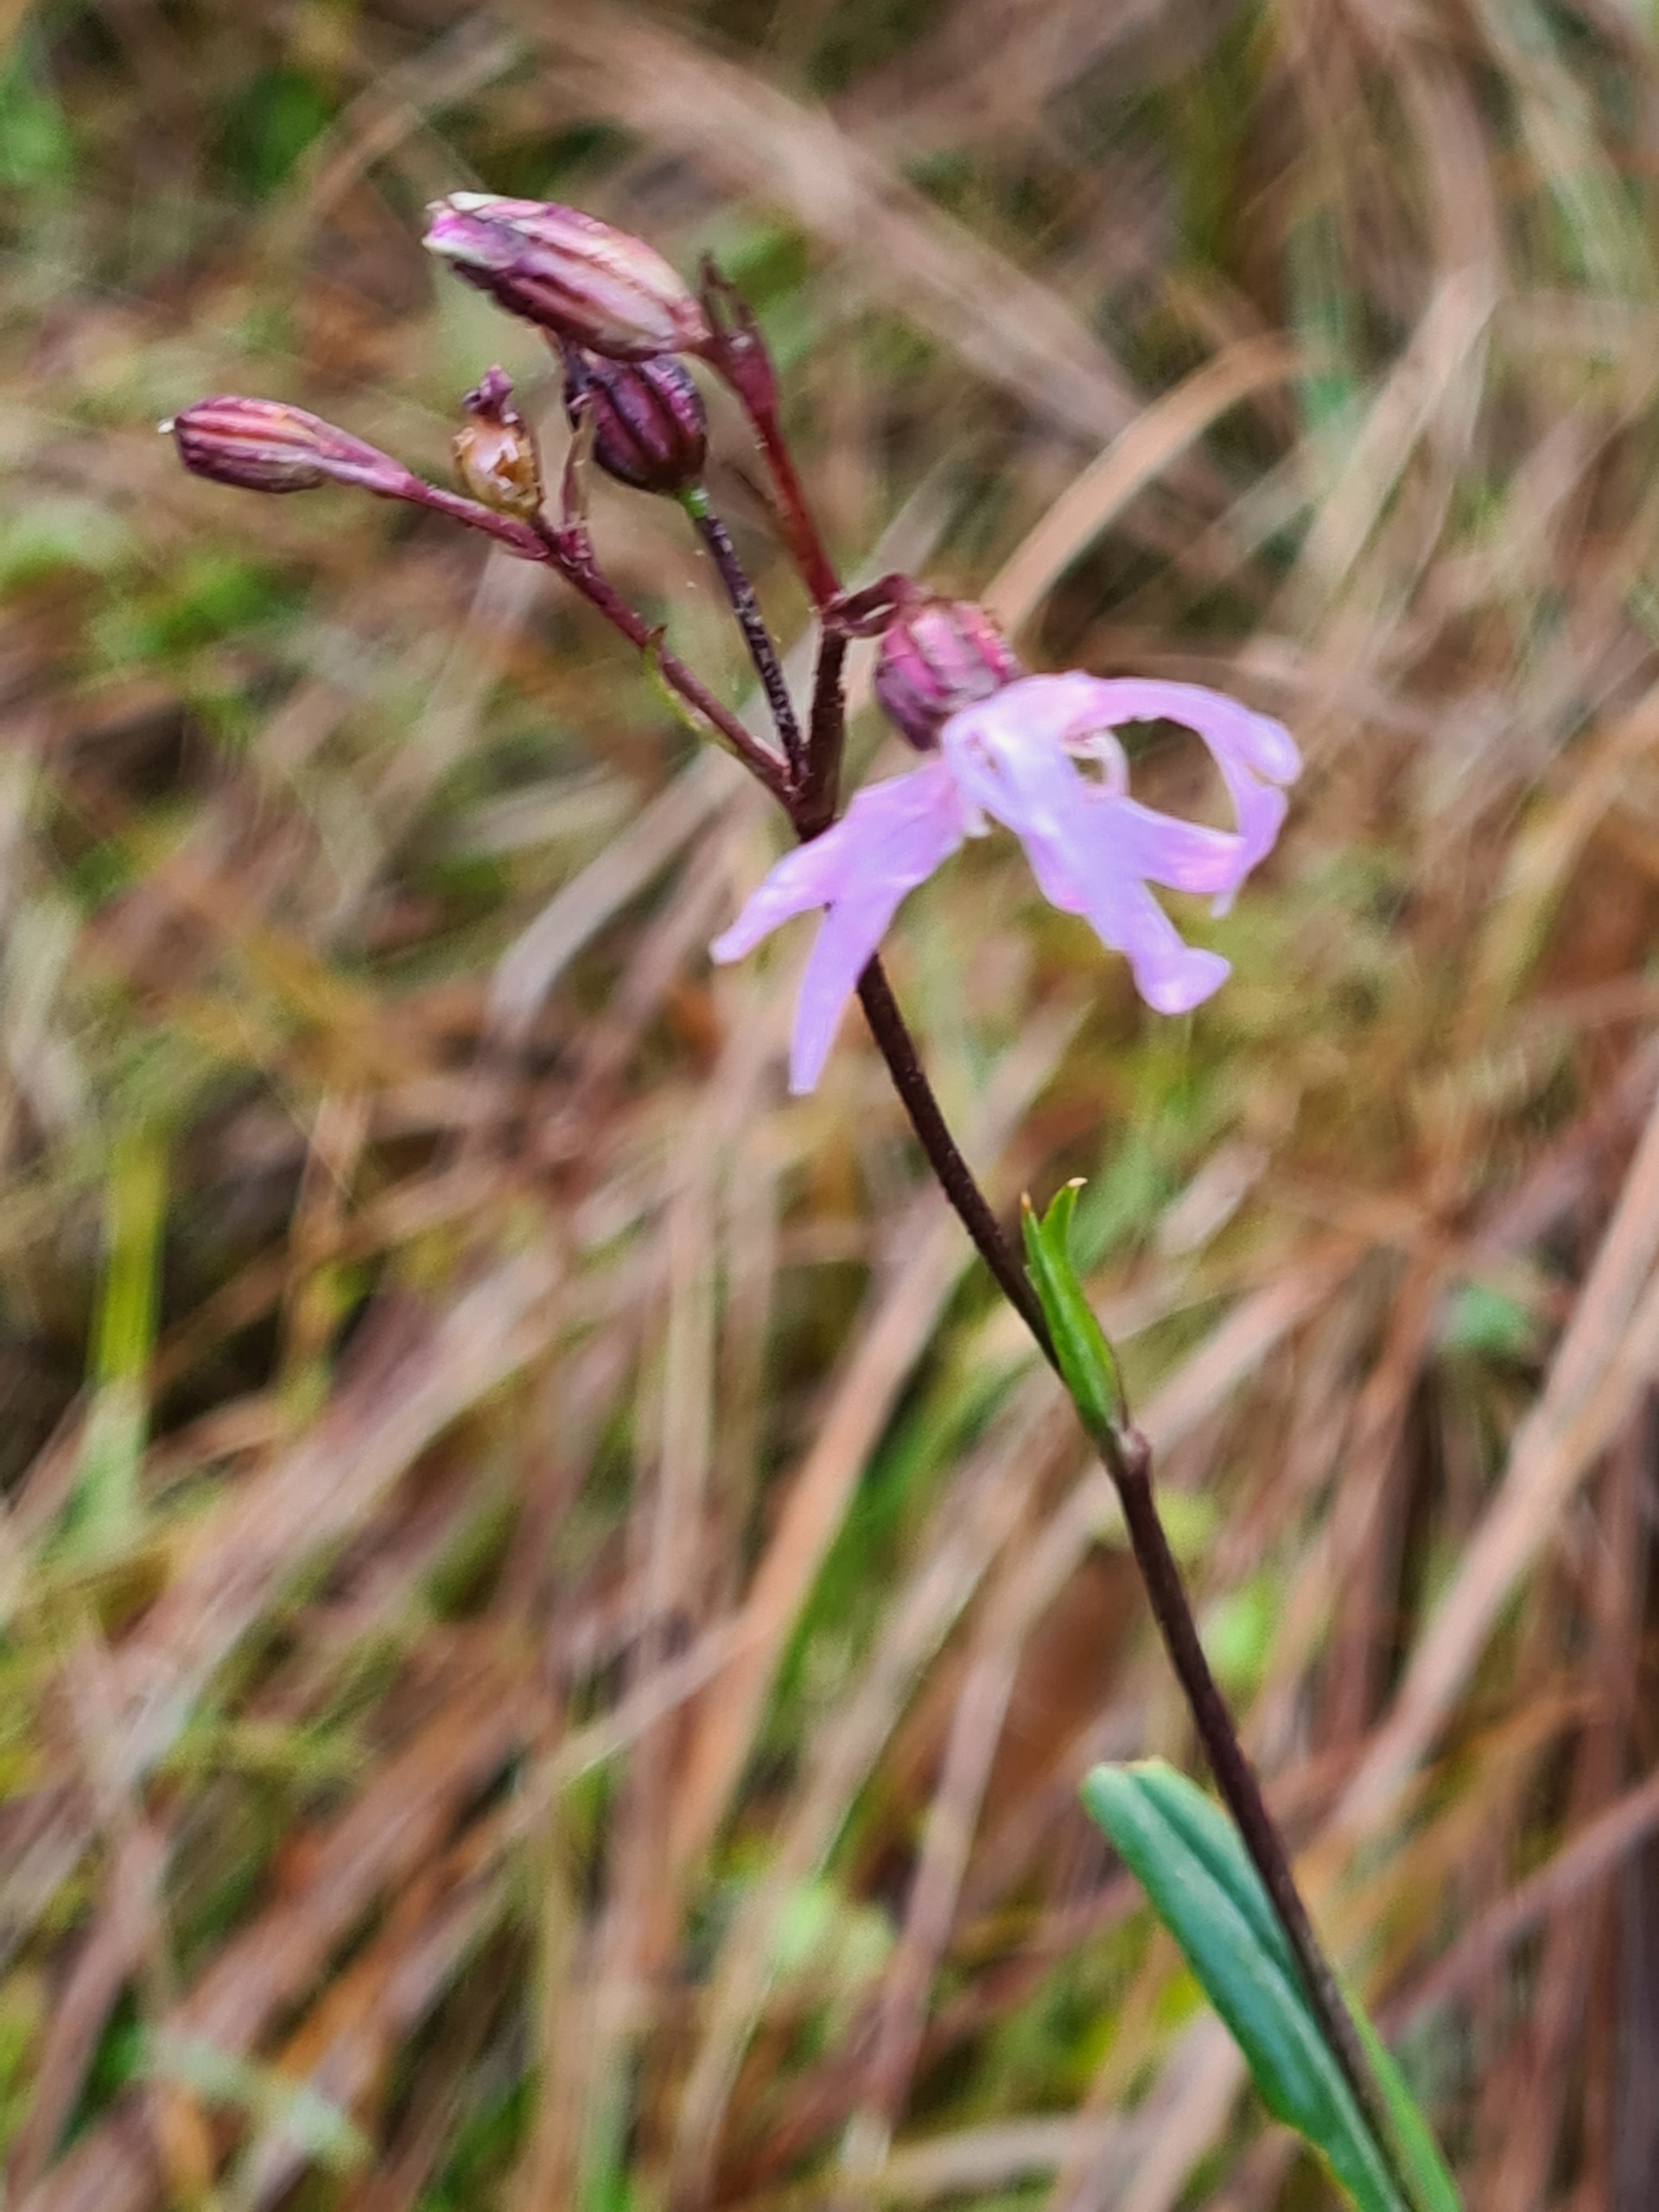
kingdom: Plantae
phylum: Tracheophyta
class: Magnoliopsida
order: Caryophyllales
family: Caryophyllaceae
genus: Silene
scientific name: Silene flos-cuculi
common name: Trævlekrone
